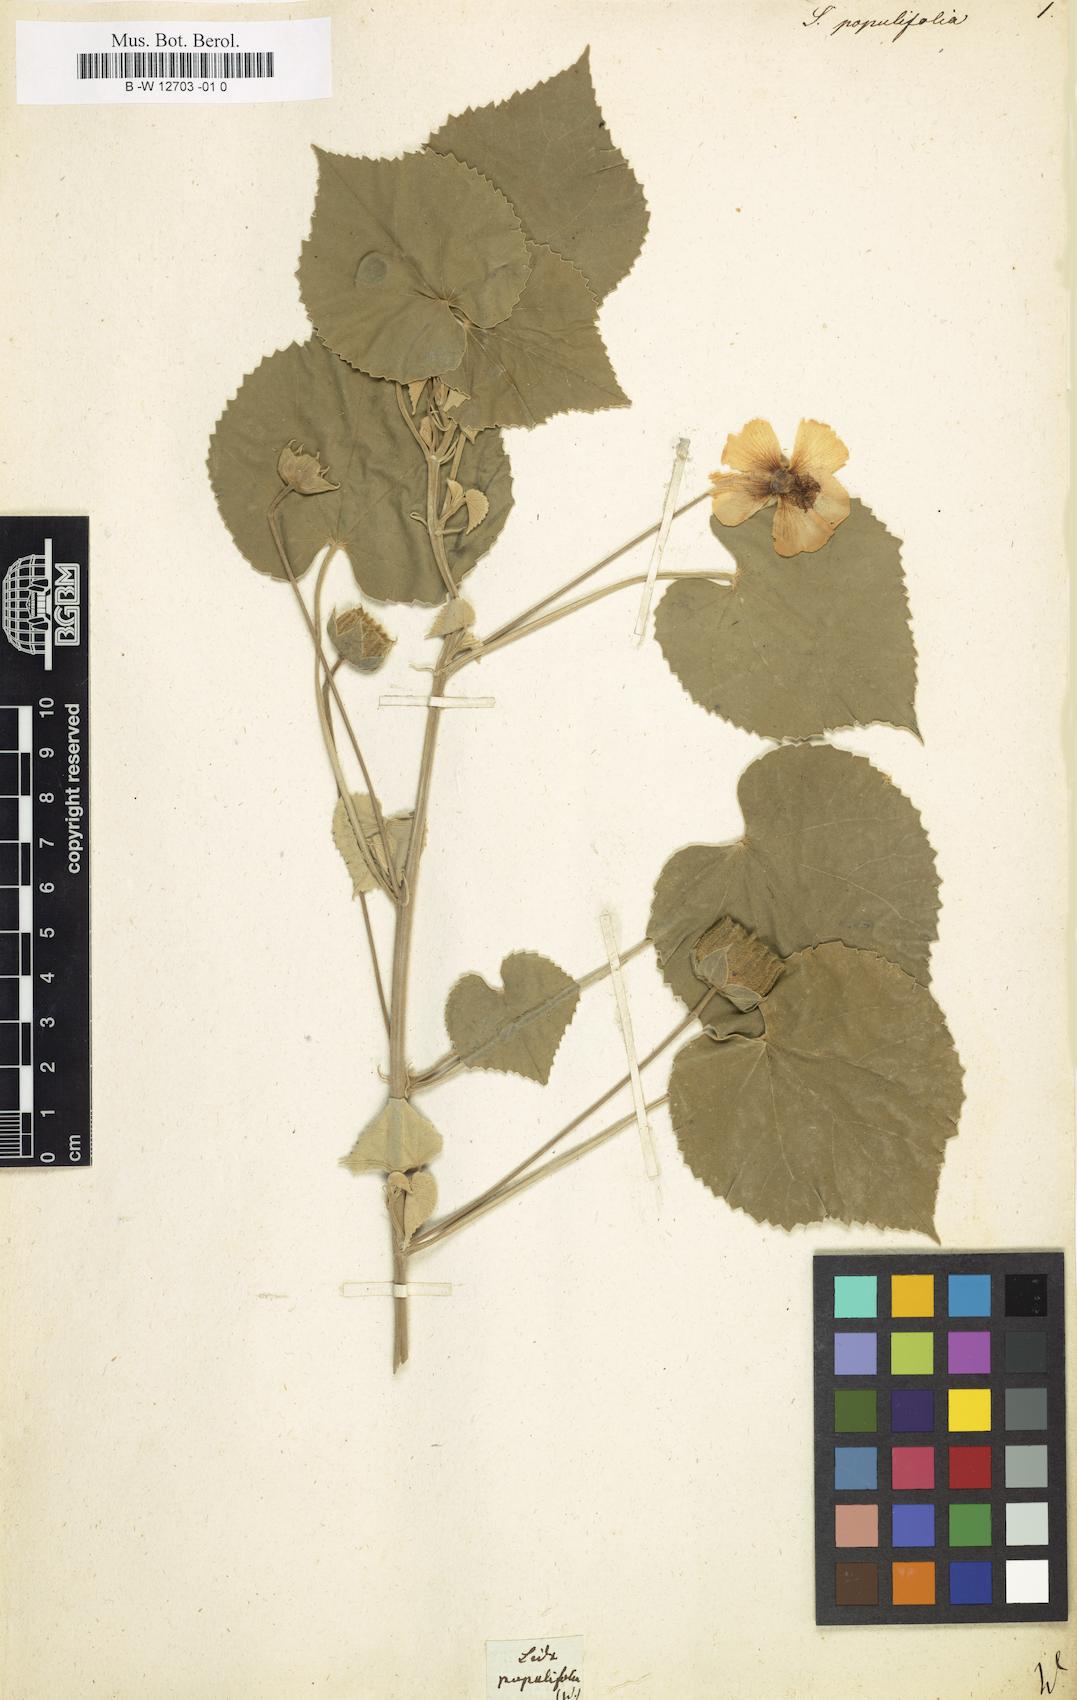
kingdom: Plantae
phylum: Tracheophyta
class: Magnoliopsida
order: Malvales
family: Malvaceae
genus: Abutilon
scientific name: Abutilon indicum
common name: Indian abutilon
